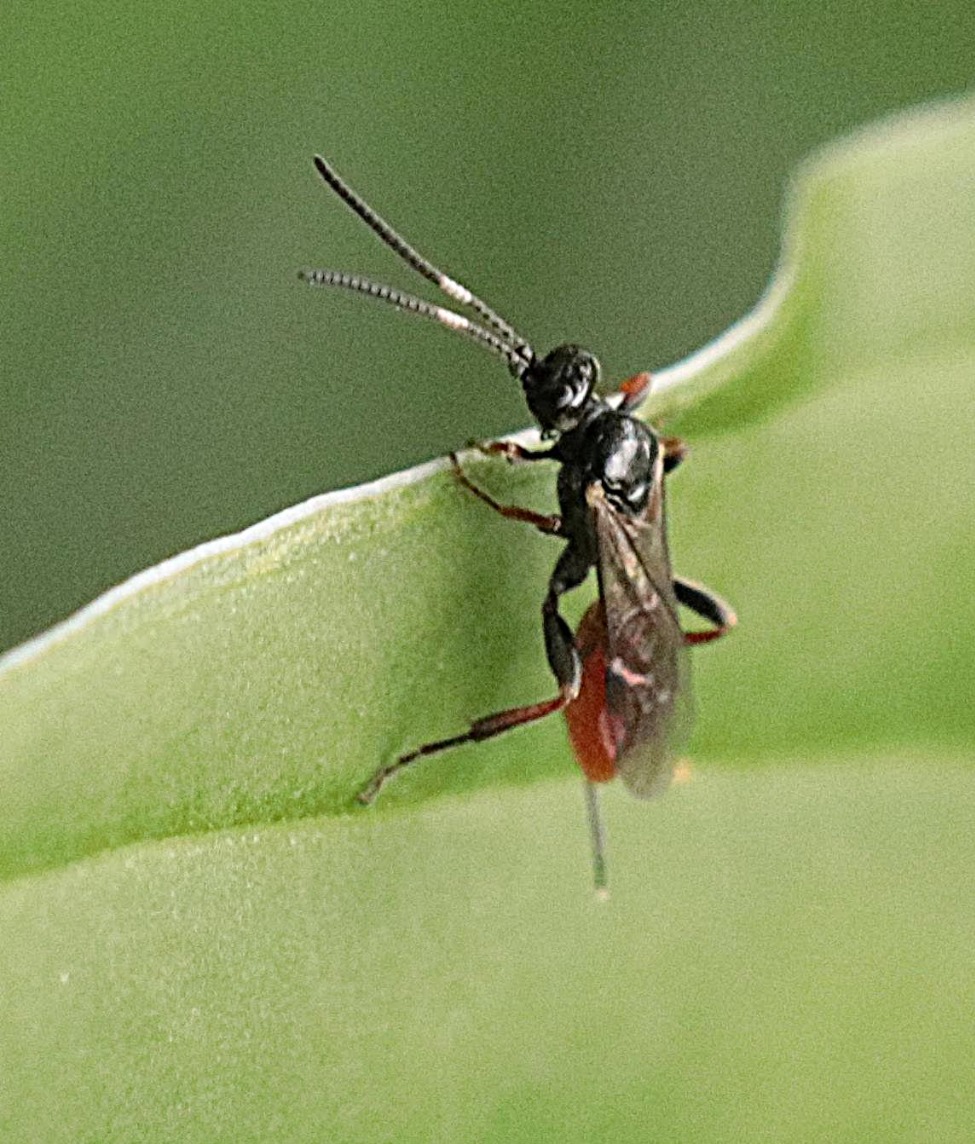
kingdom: Animalia
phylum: Arthropoda
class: Insecta
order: Hymenoptera
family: Ichneumonidae
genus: Crypteffigies
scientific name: Crypteffigies lanius
